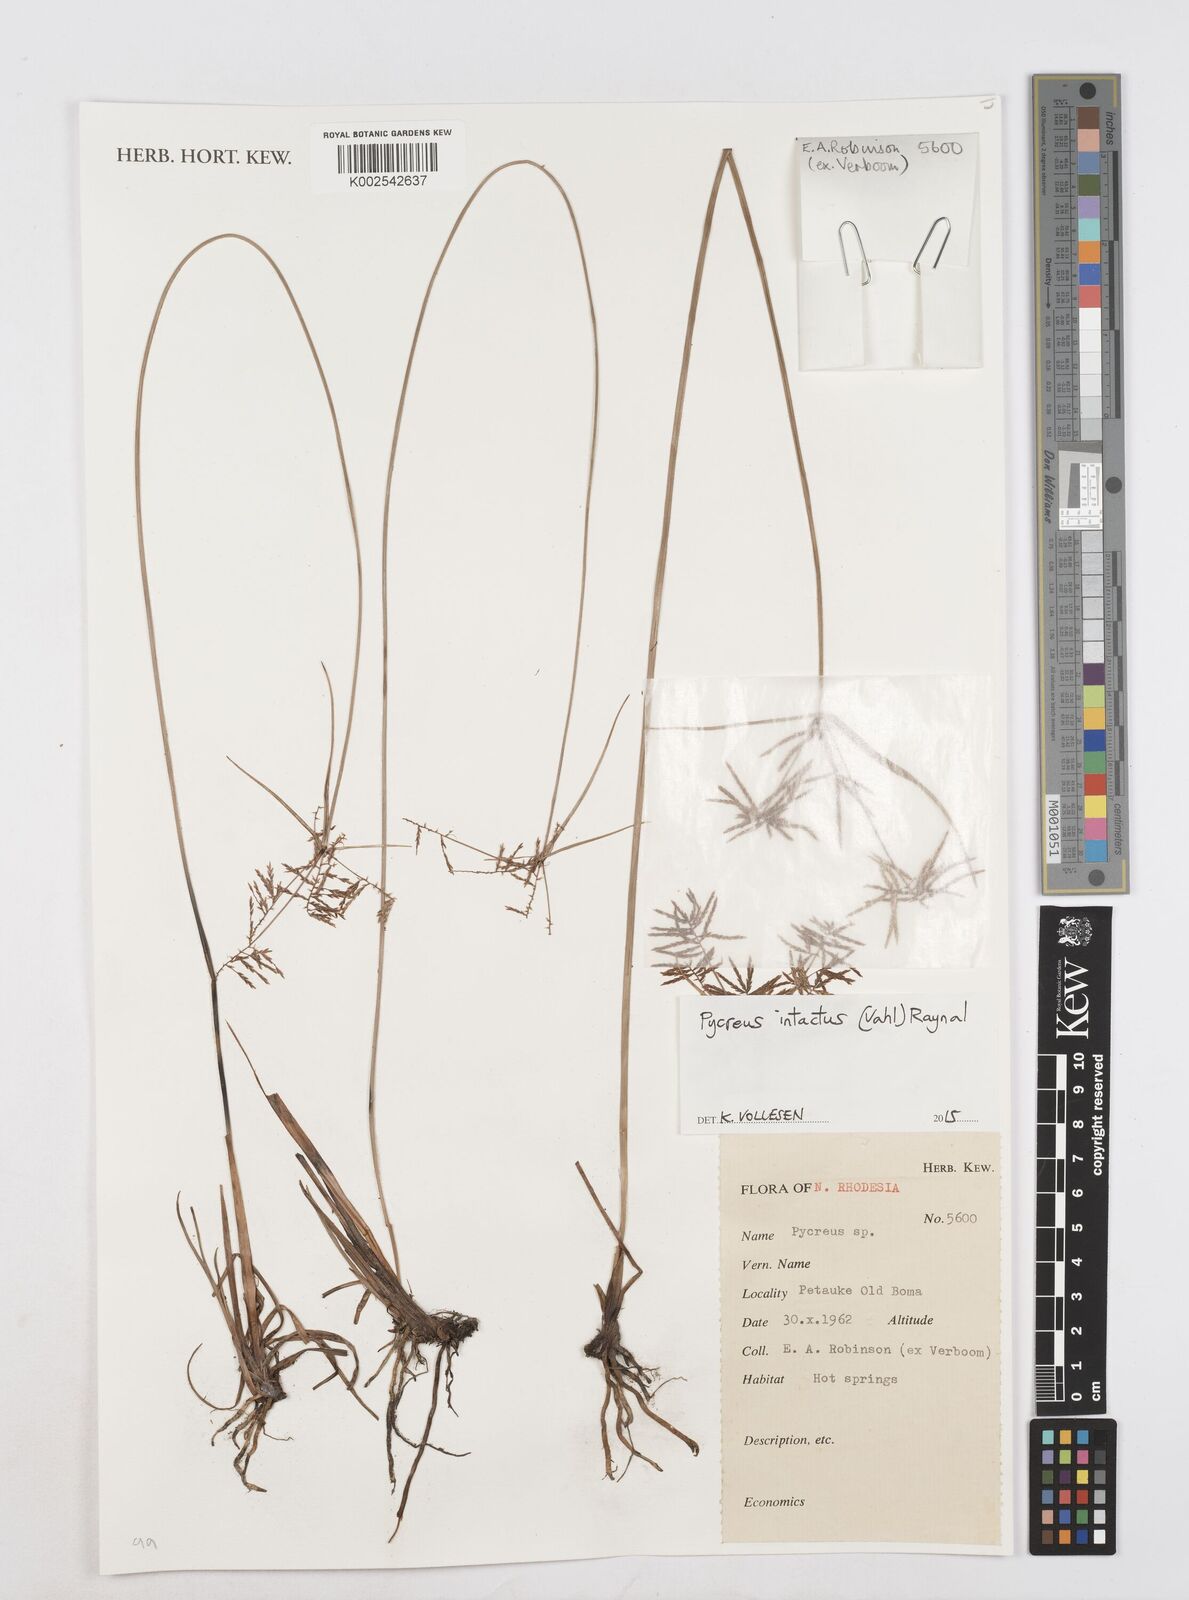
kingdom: Plantae
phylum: Tracheophyta
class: Liliopsida
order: Poales
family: Cyperaceae
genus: Cyperus
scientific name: Cyperus intactus
